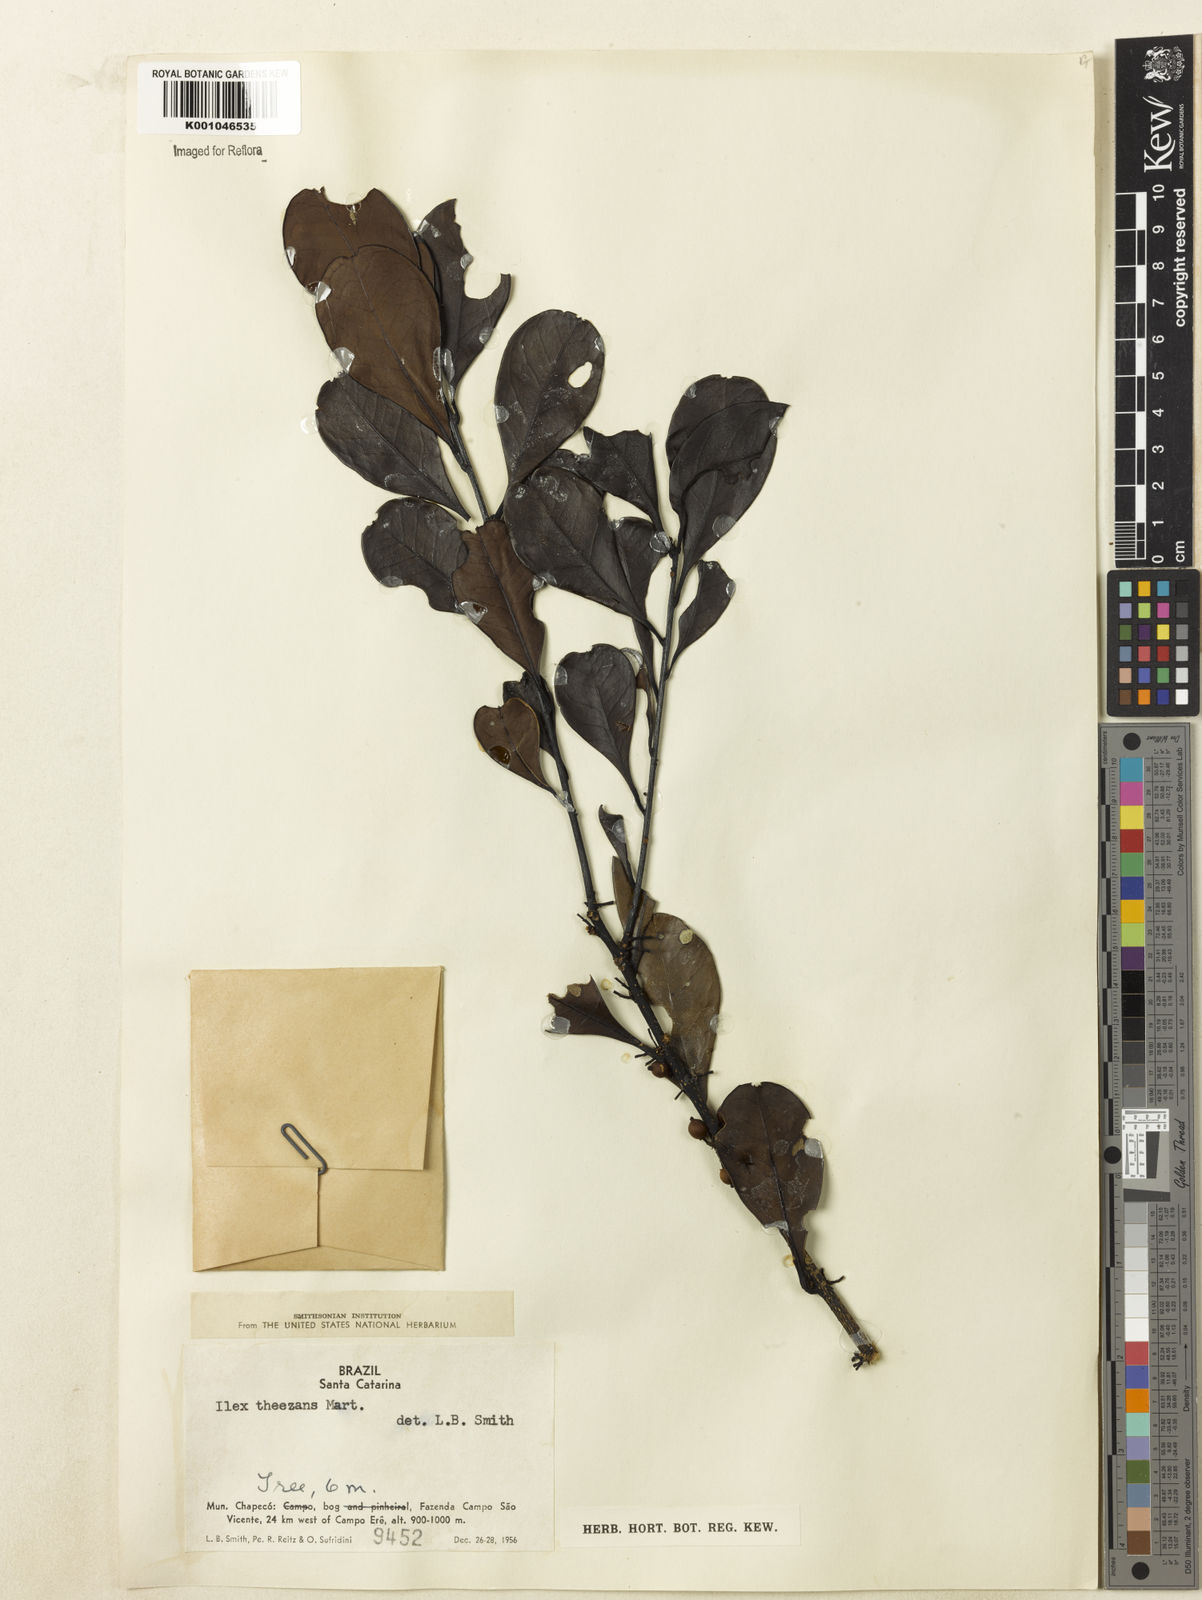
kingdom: Plantae
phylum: Tracheophyta
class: Magnoliopsida
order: Aquifoliales
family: Aquifoliaceae
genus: Ilex
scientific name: Ilex theezans
